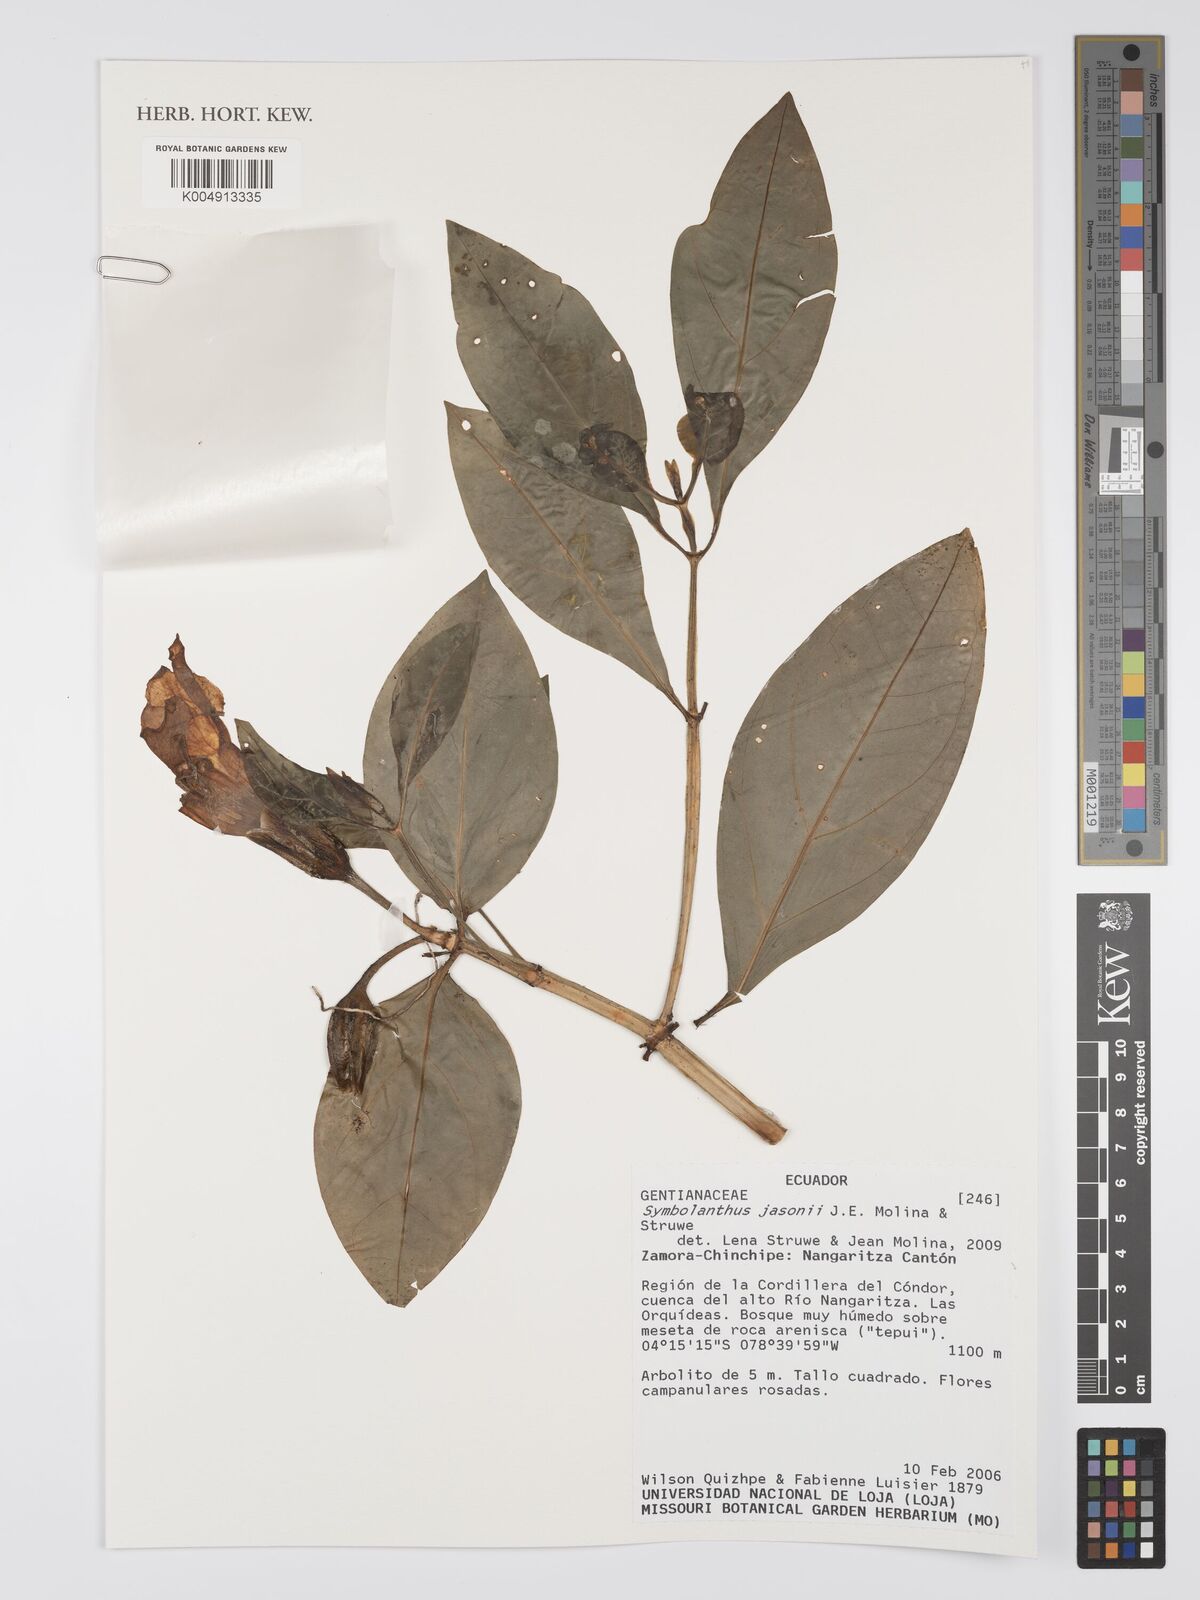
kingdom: Plantae
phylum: Tracheophyta
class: Magnoliopsida
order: Gentianales
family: Gentianaceae
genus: Symbolanthus
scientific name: Symbolanthus jasonii
